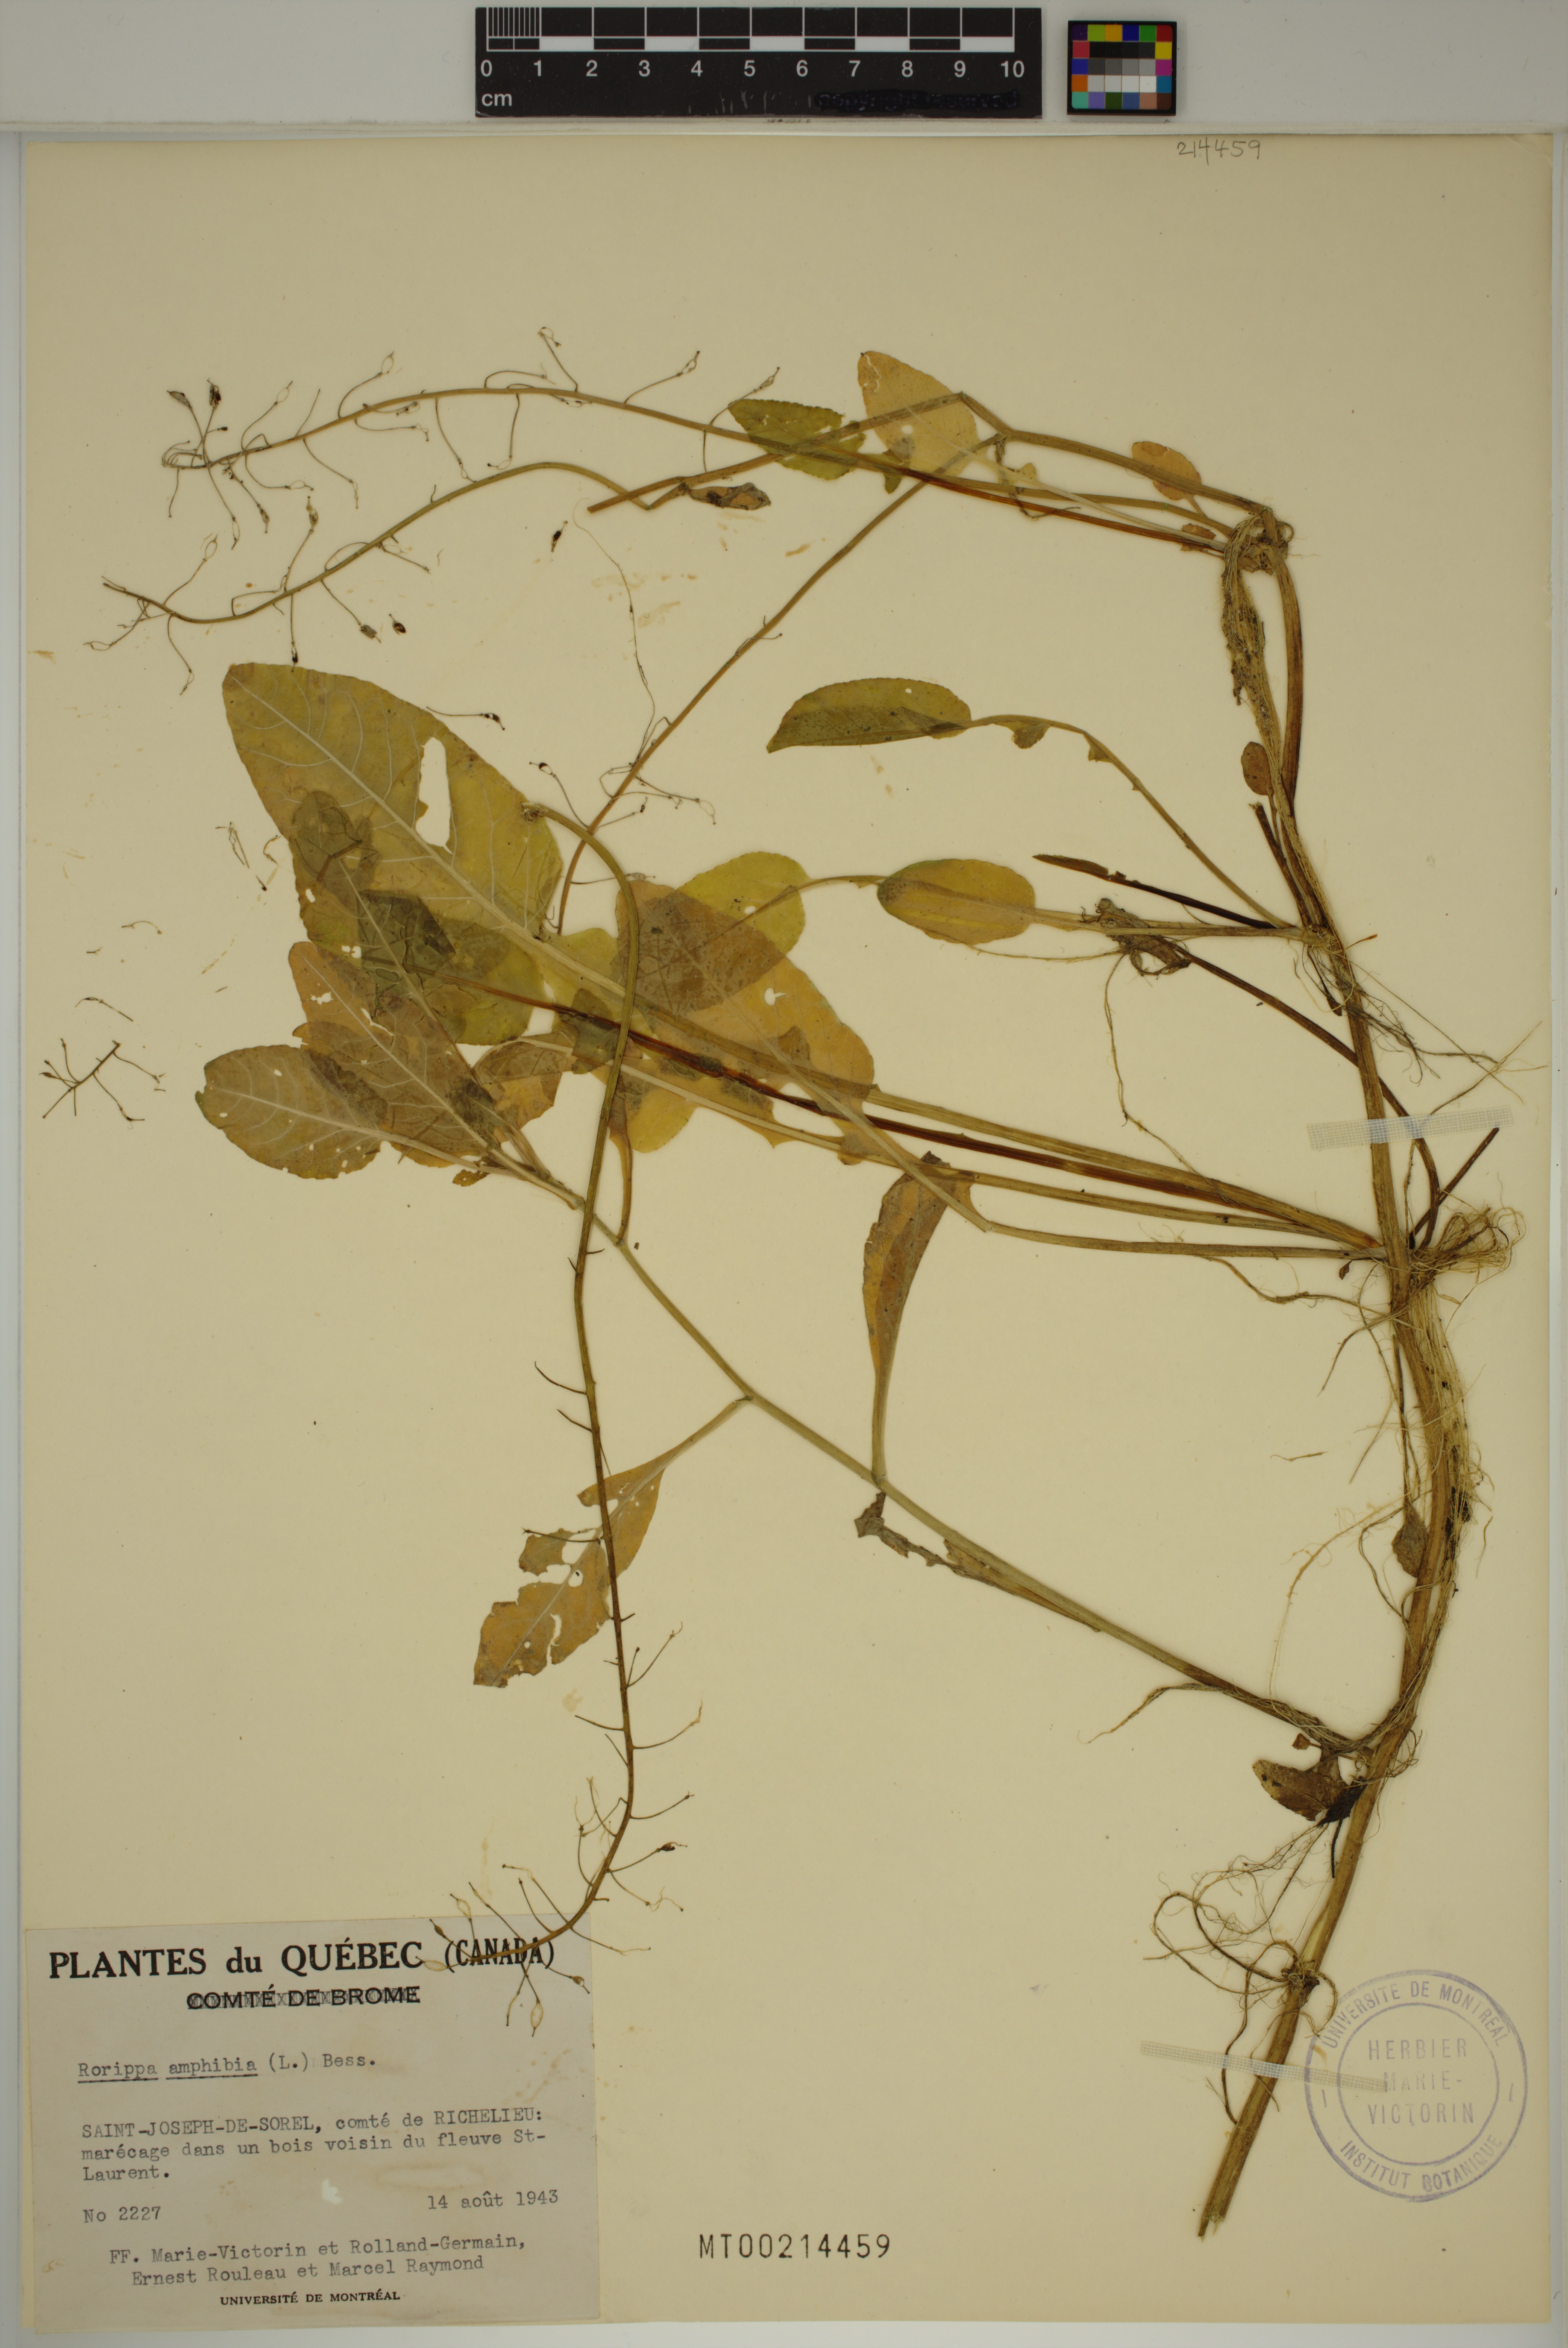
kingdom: Plantae
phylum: Tracheophyta
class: Magnoliopsida
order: Brassicales
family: Brassicaceae
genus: Rorippa
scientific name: Rorippa amphibia
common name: Great yellow-cress
